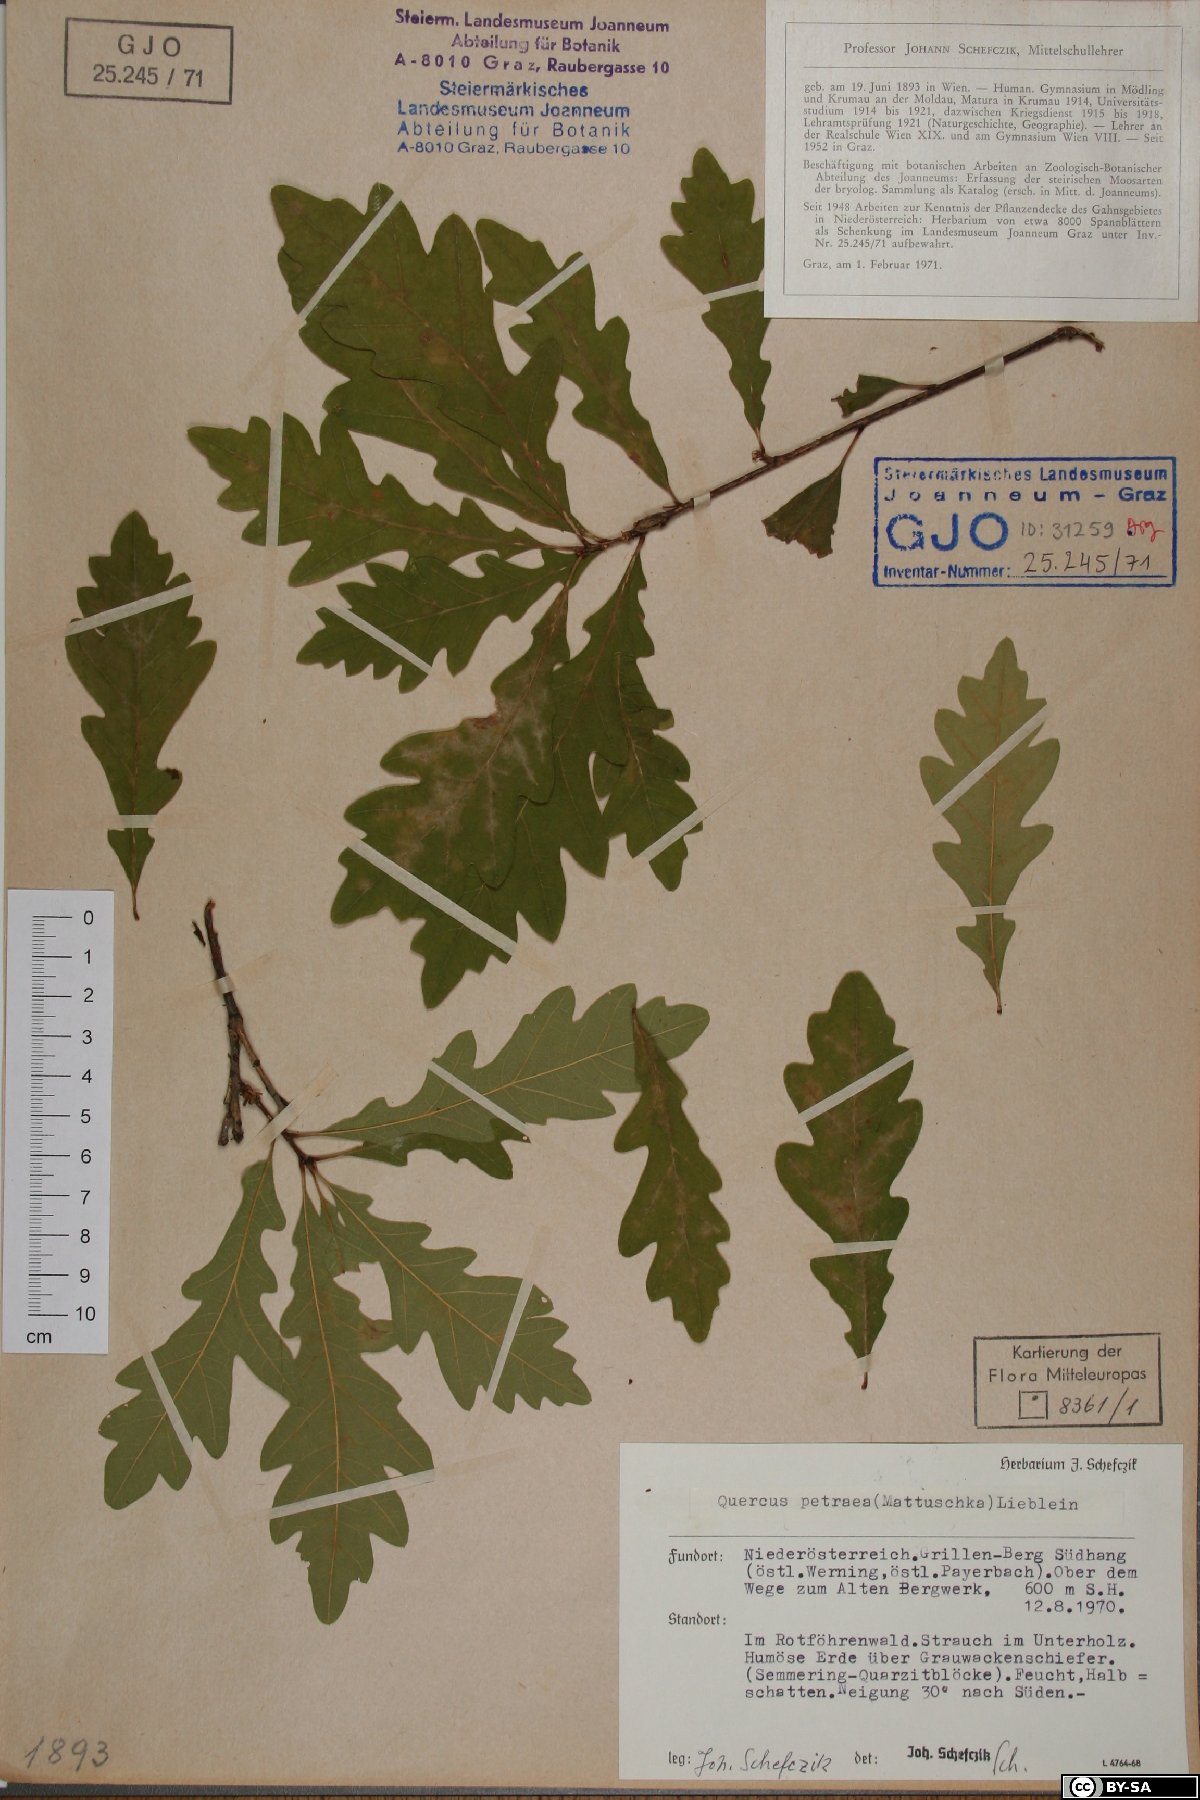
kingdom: Plantae
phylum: Tracheophyta
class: Magnoliopsida
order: Fagales
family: Fagaceae
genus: Quercus
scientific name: Quercus petraea
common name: Sessile oak
